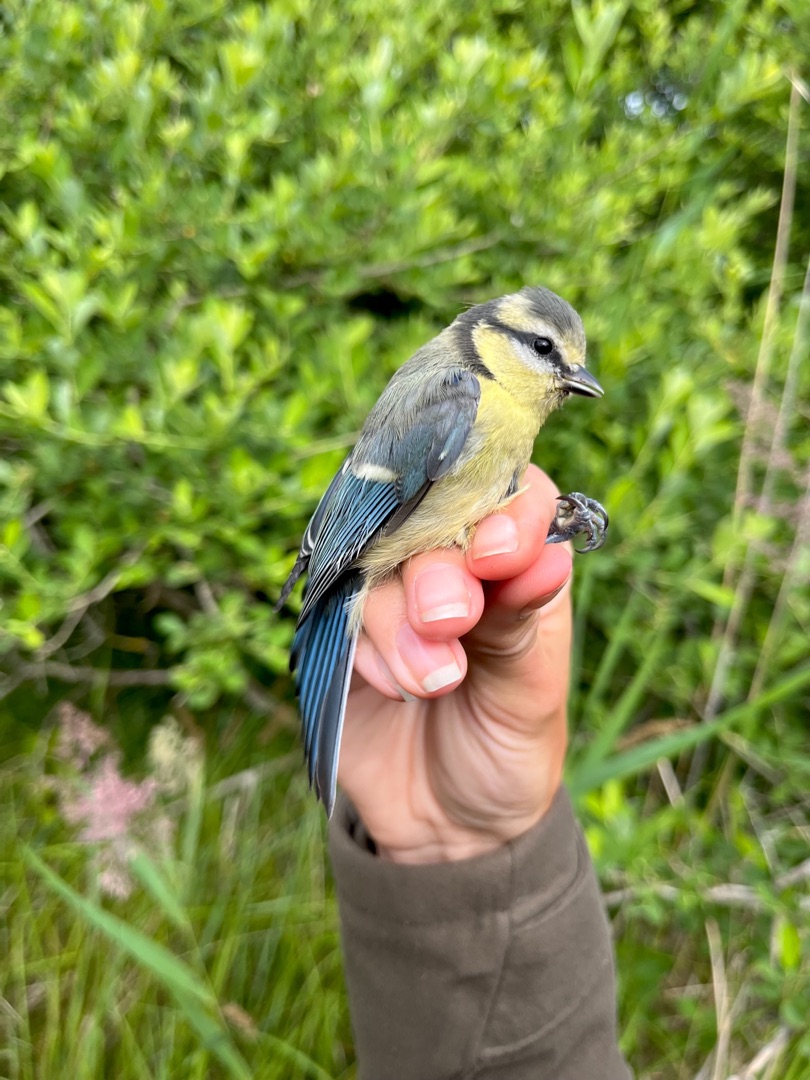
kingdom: Animalia
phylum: Chordata
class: Aves
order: Passeriformes
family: Paridae
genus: Cyanistes
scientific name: Cyanistes caeruleus
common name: Blåmejse
